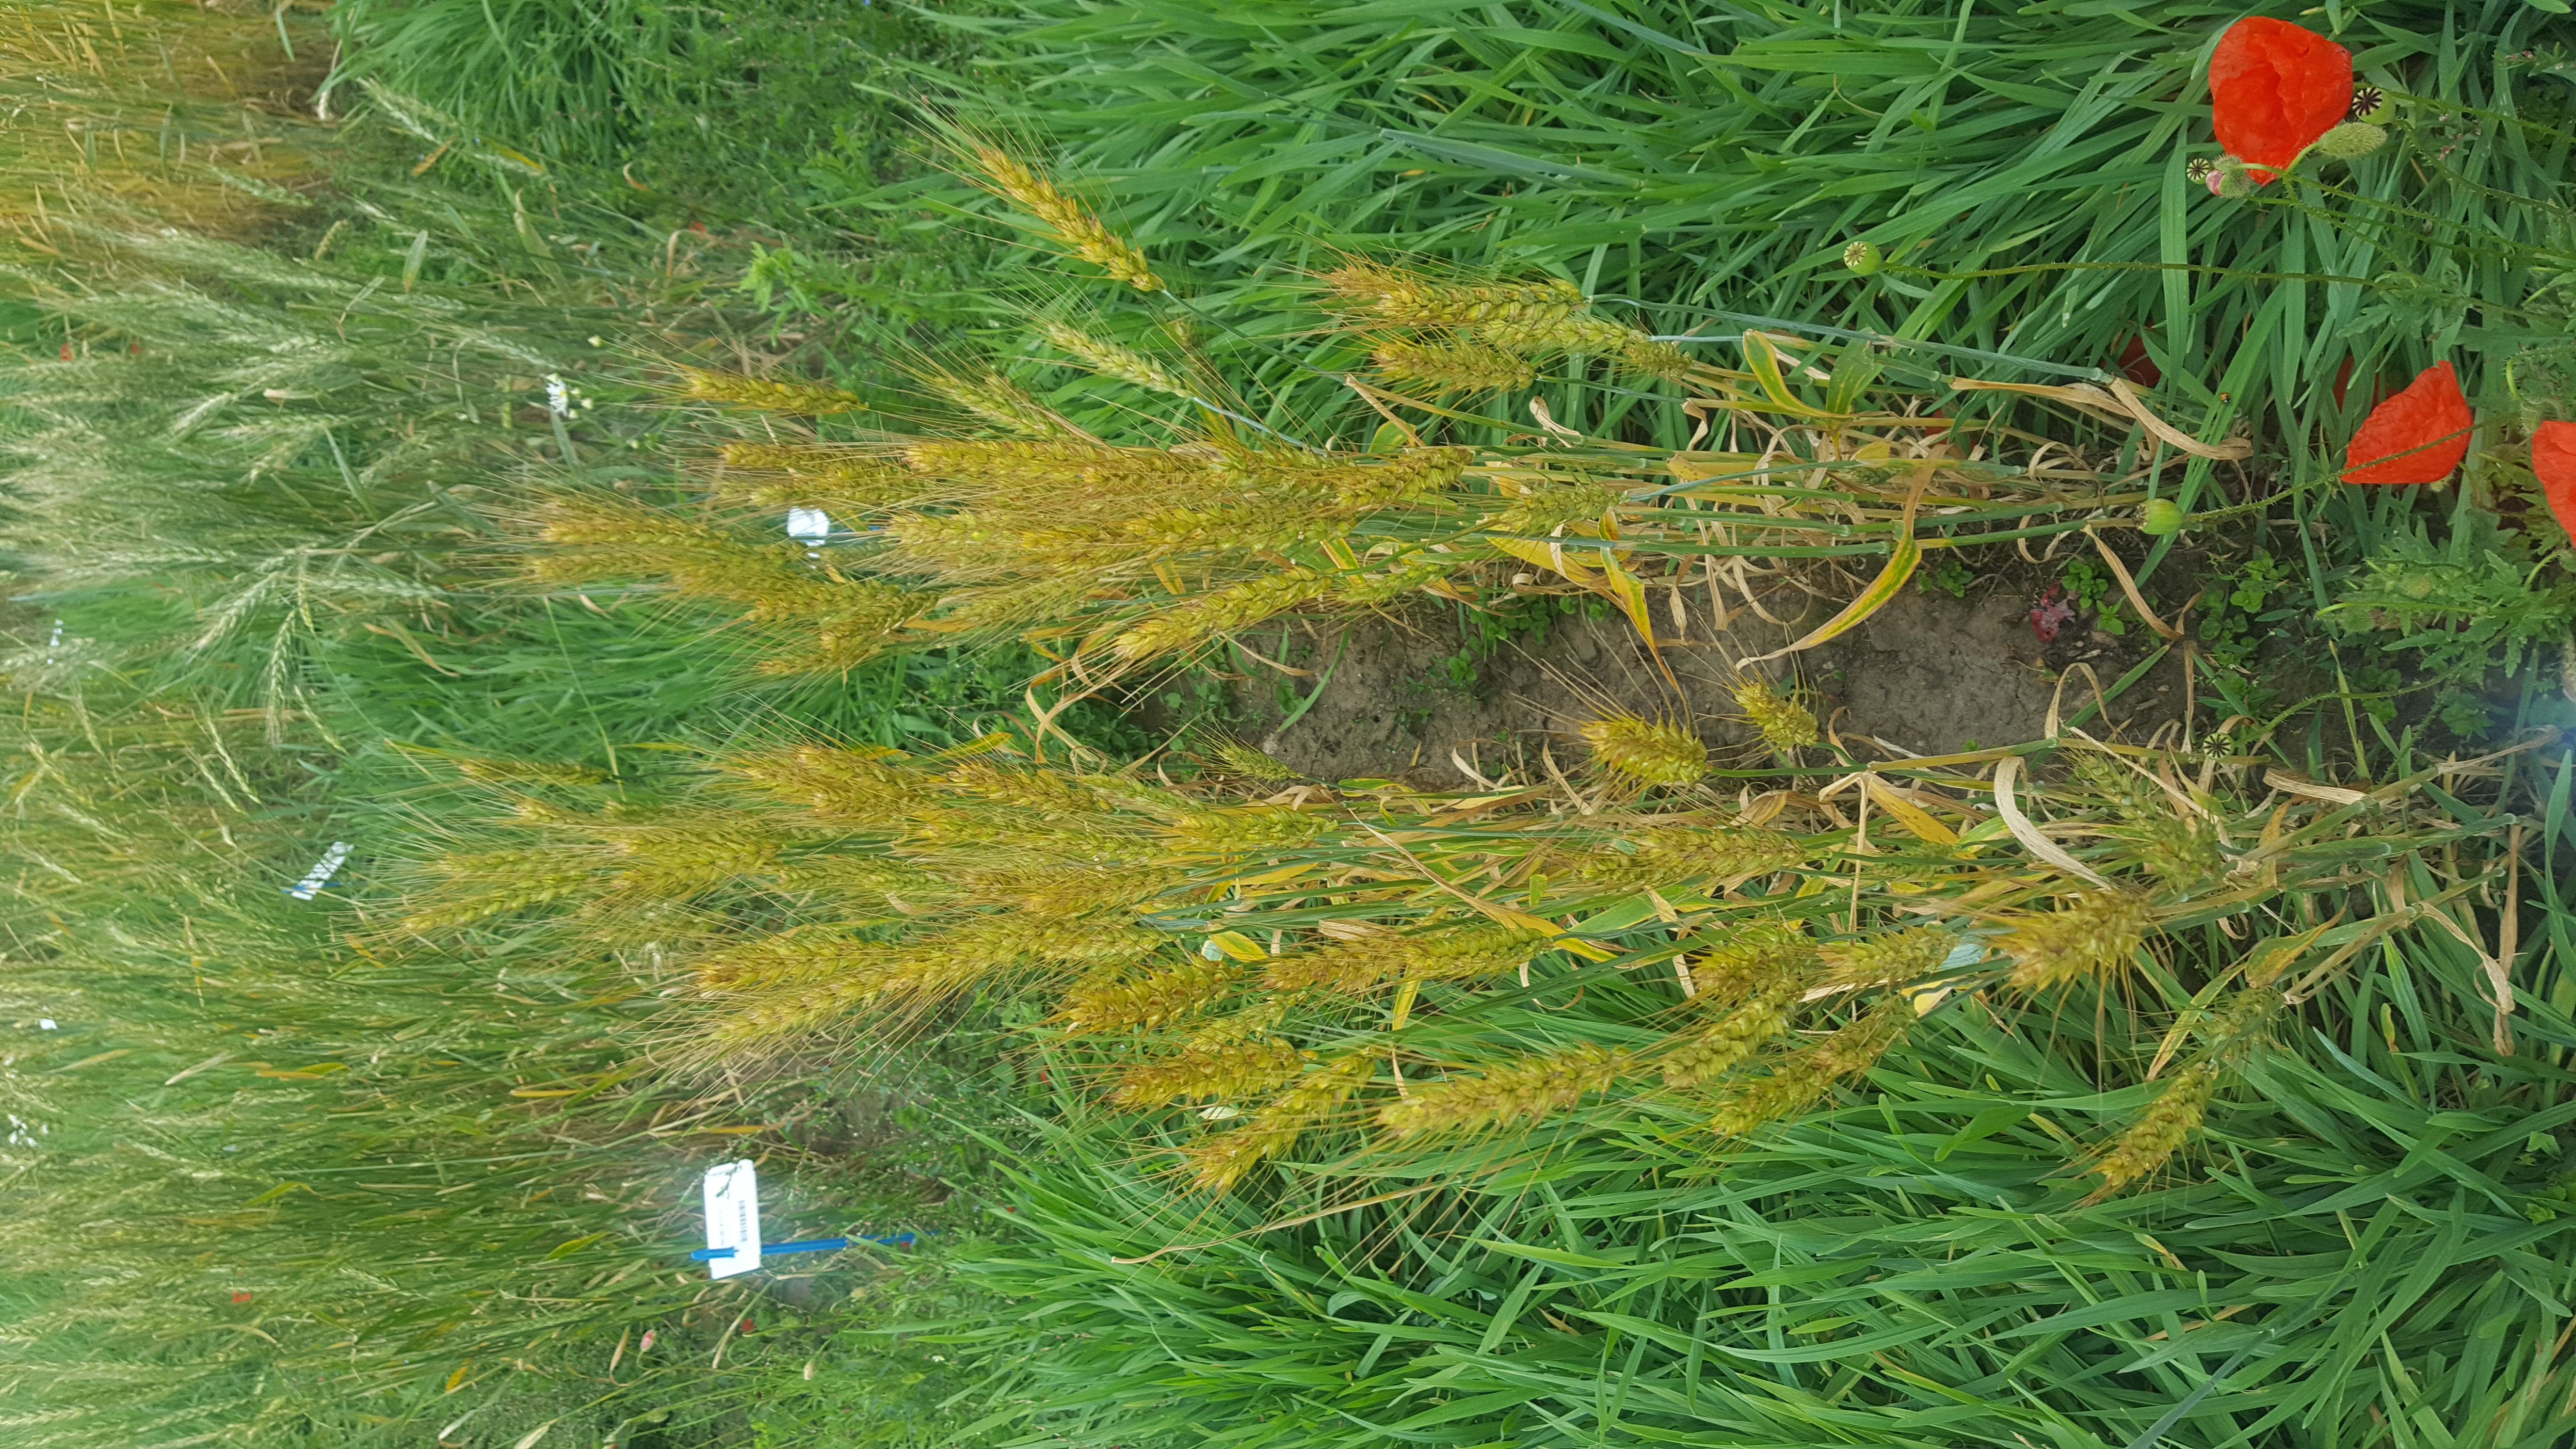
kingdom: Plantae
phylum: Tracheophyta
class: Liliopsida
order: Poales
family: Poaceae
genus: Triticum
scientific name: Triticum aestivum
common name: Common wheat
